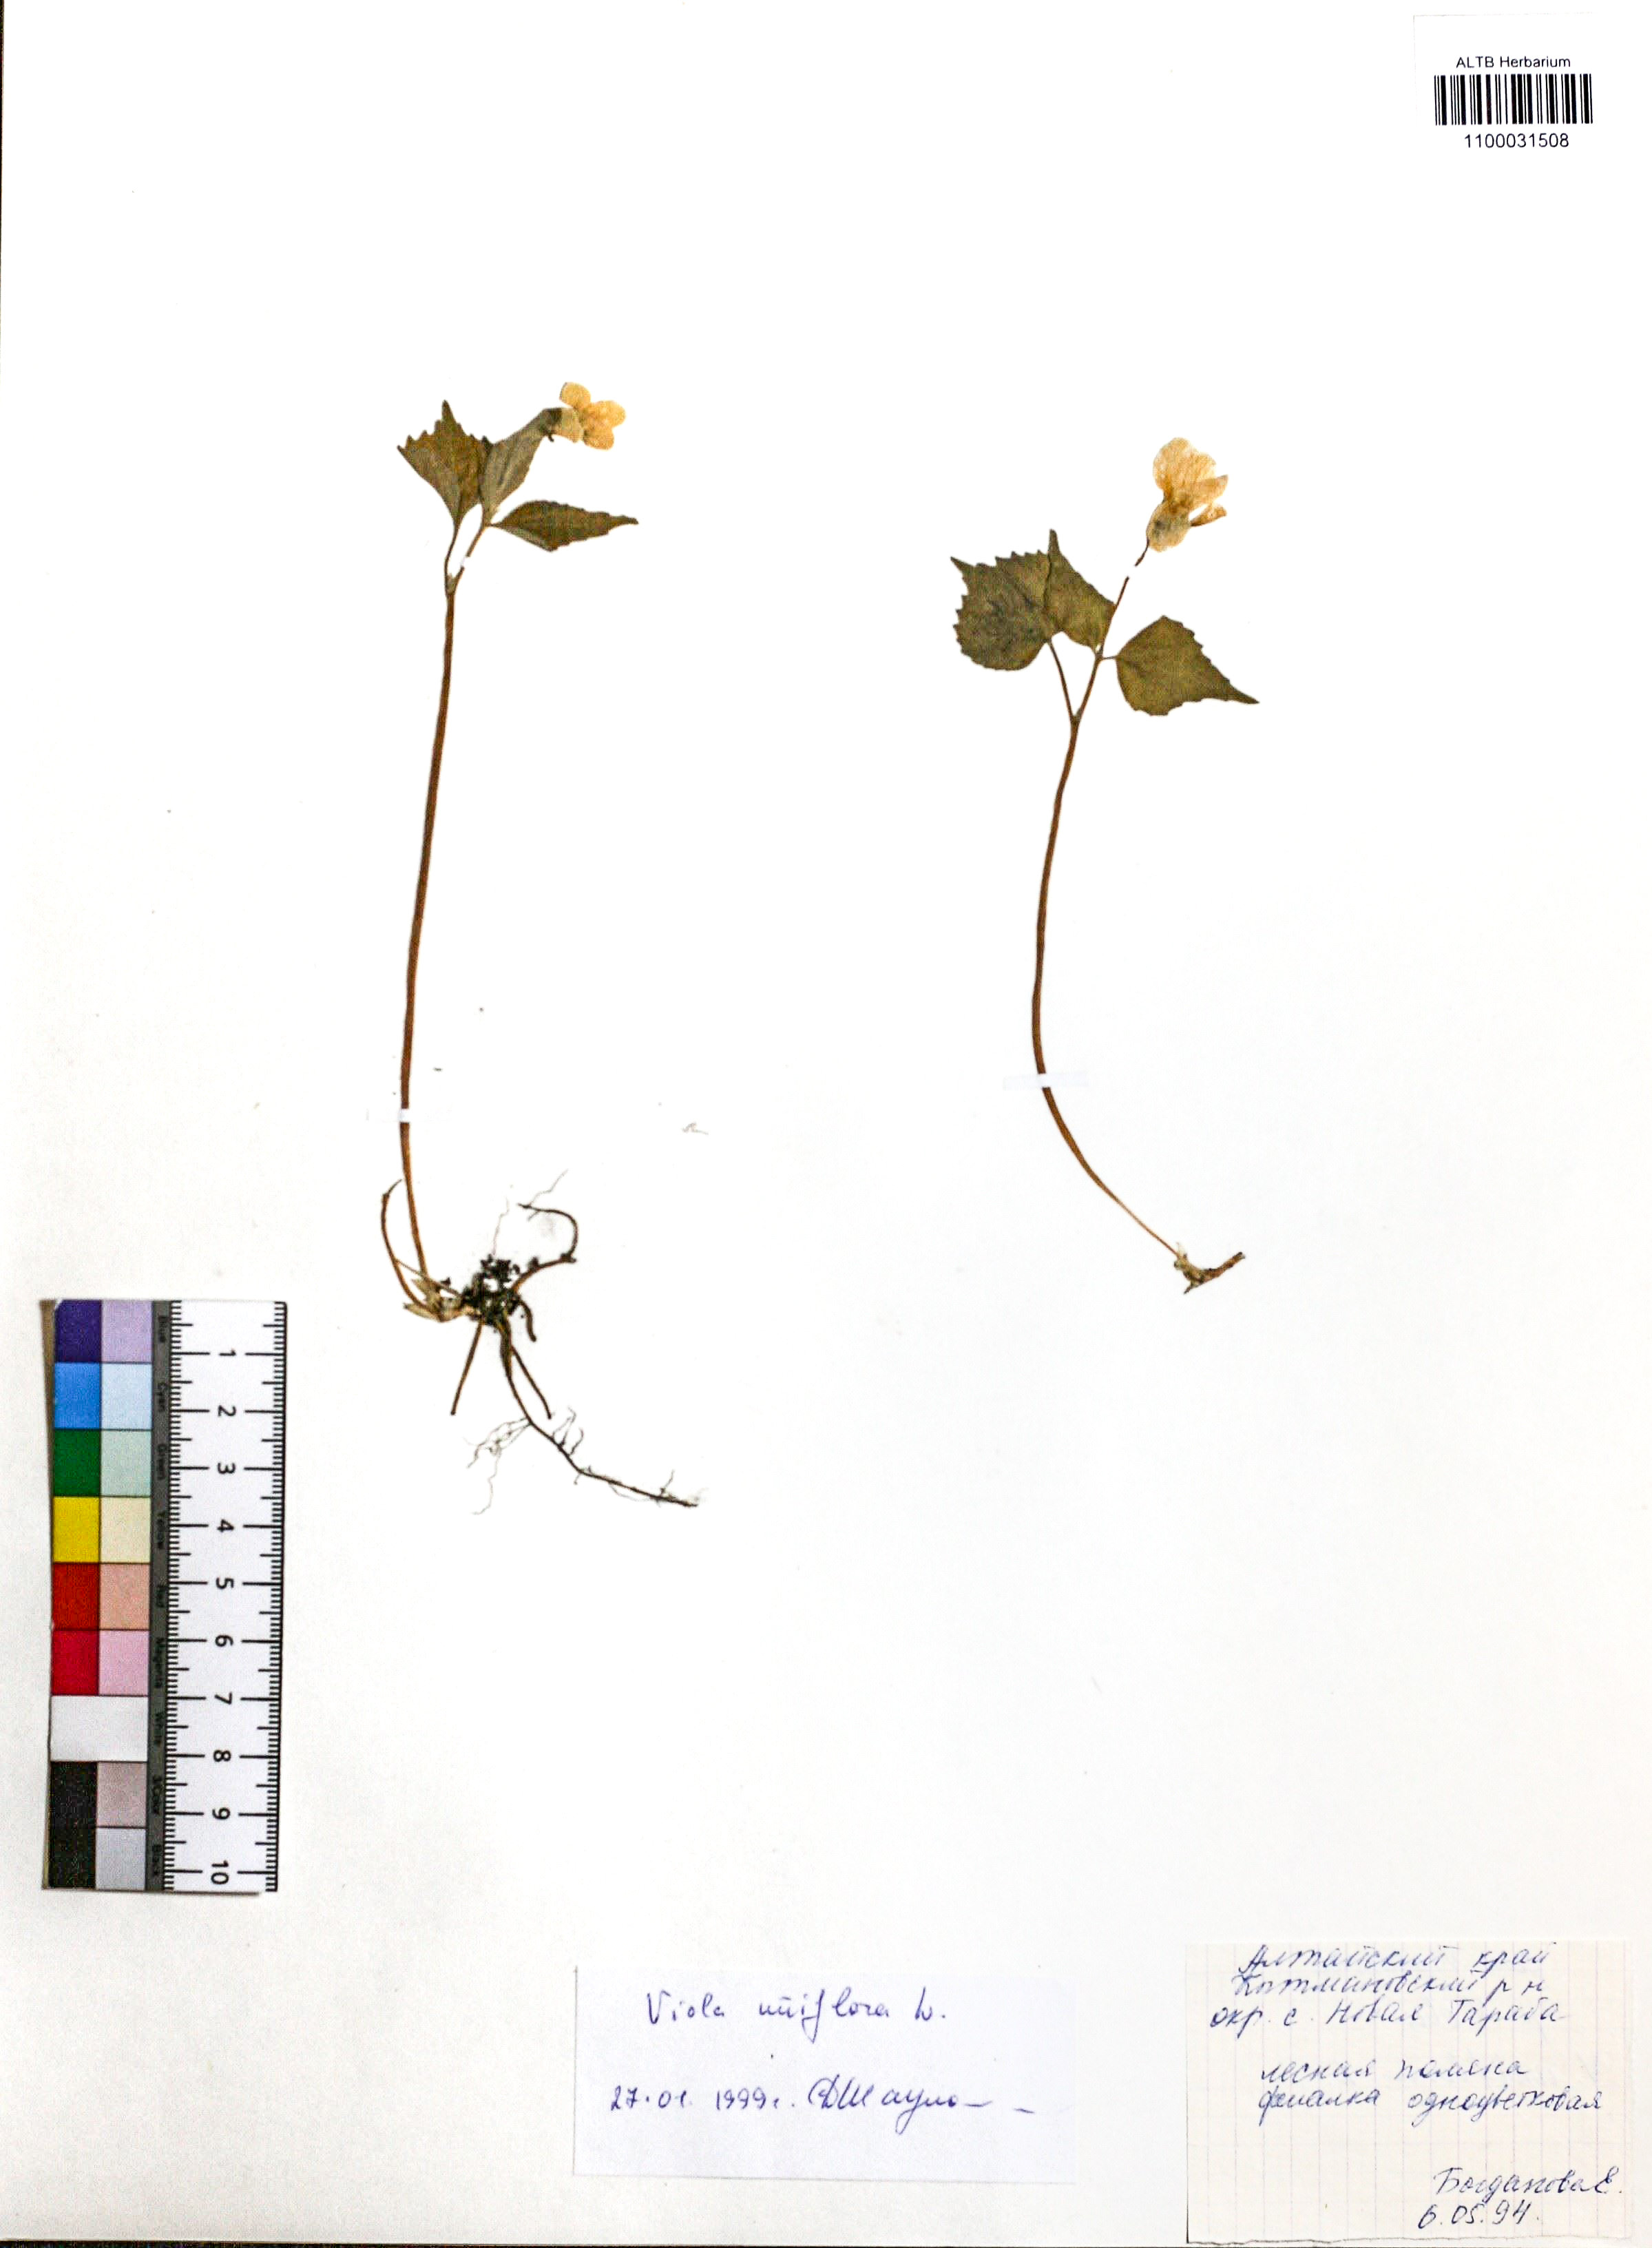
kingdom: Plantae
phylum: Tracheophyta
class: Magnoliopsida
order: Malpighiales
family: Violaceae
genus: Viola
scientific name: Viola uniflora
